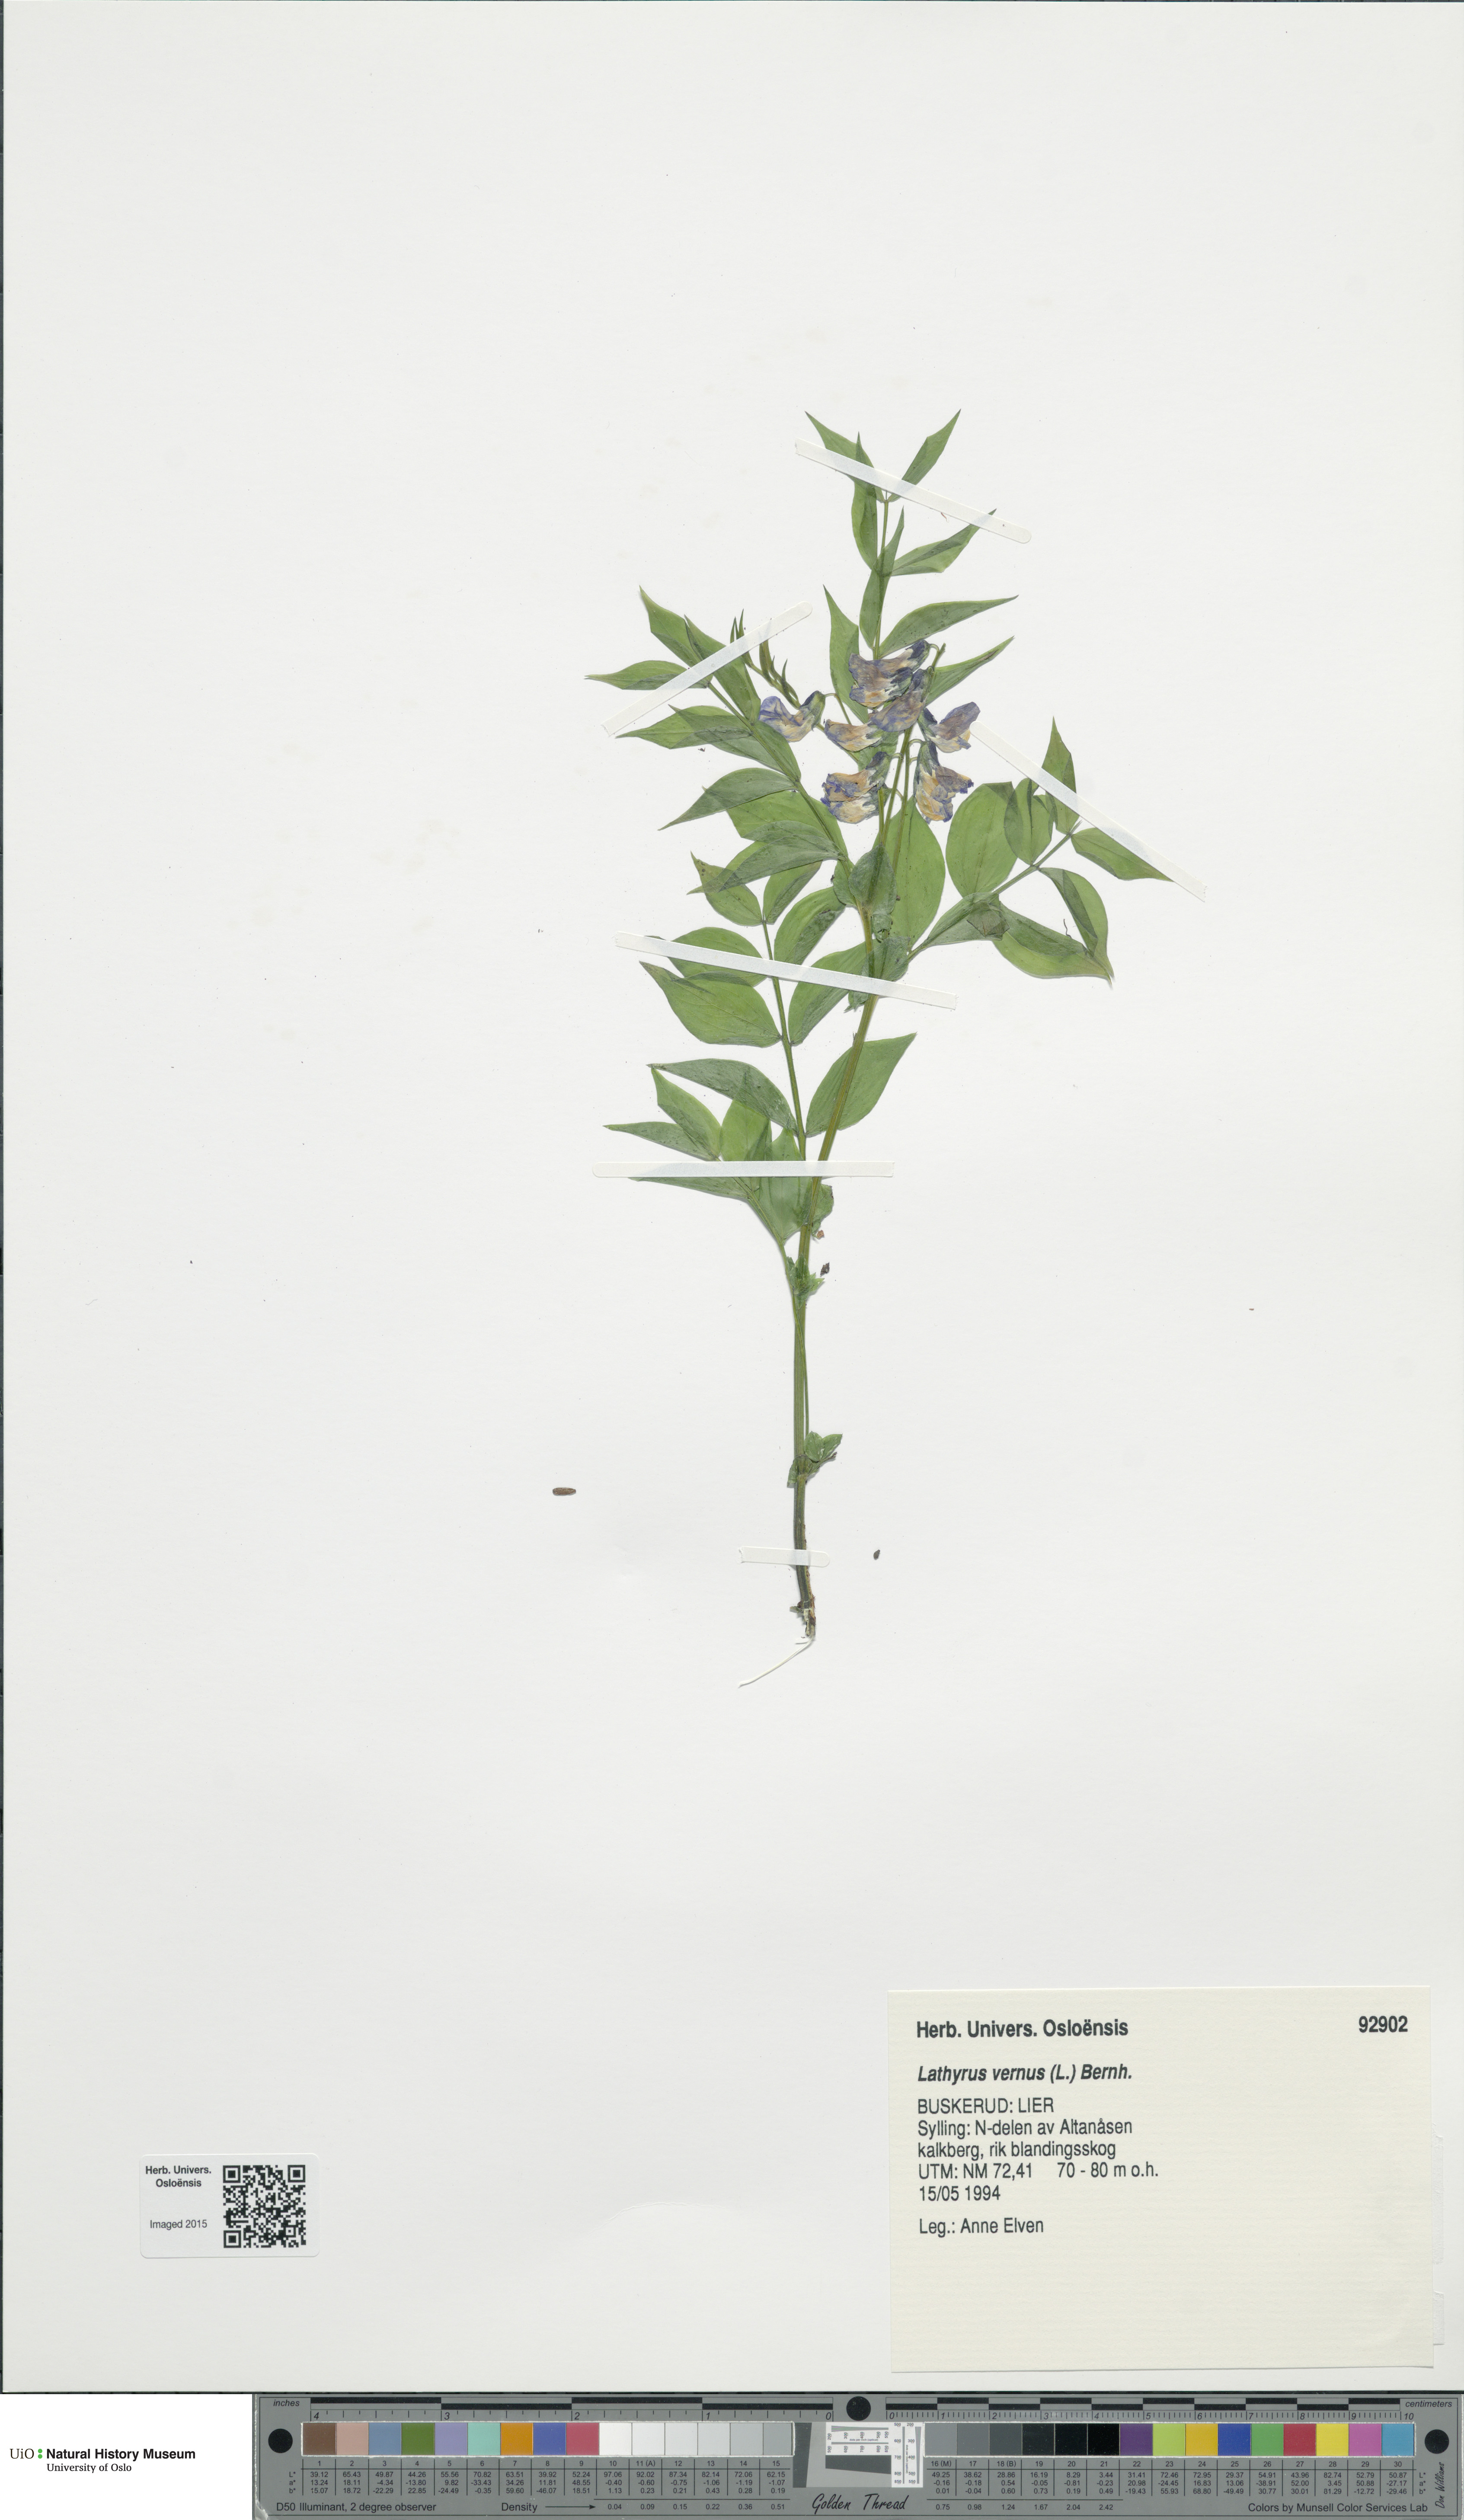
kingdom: Plantae
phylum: Tracheophyta
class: Magnoliopsida
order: Fabales
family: Fabaceae
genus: Lathyrus
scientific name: Lathyrus vernus
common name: Spring pea
